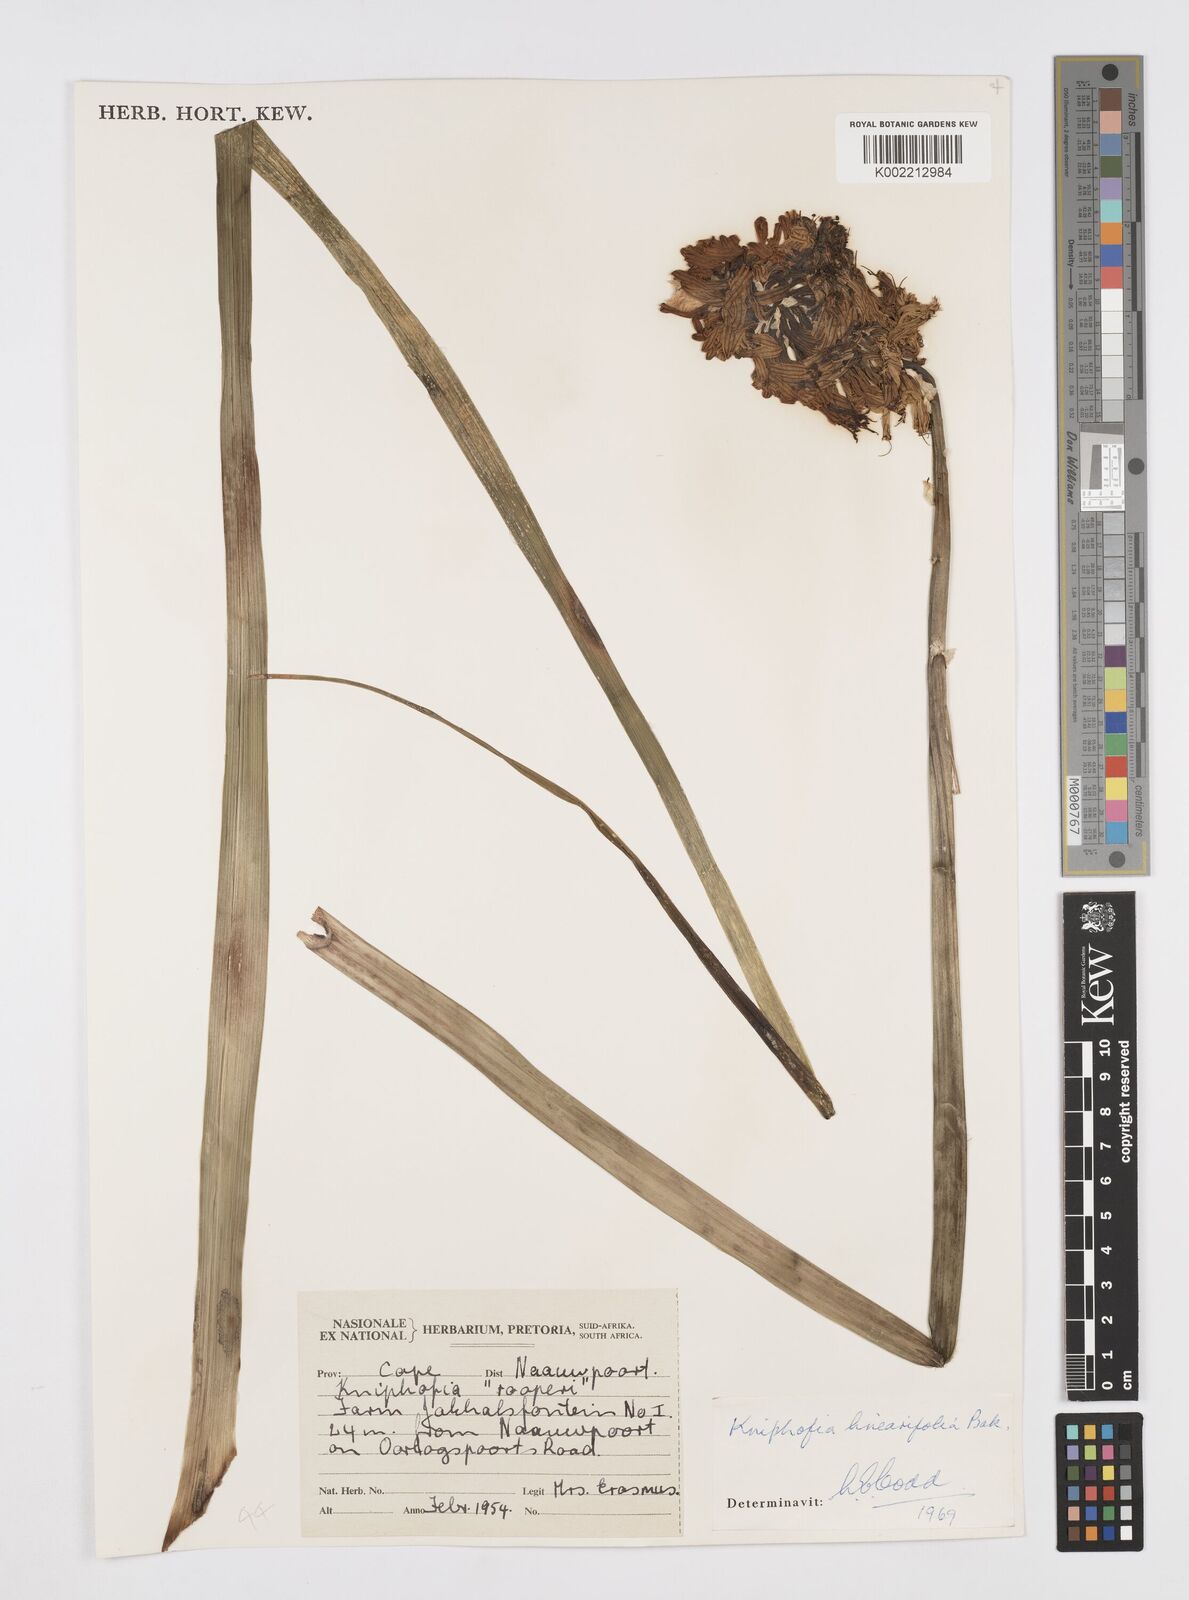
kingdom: Plantae
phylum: Tracheophyta
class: Liliopsida
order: Asparagales
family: Asphodelaceae
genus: Kniphofia
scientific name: Kniphofia linearifolia
